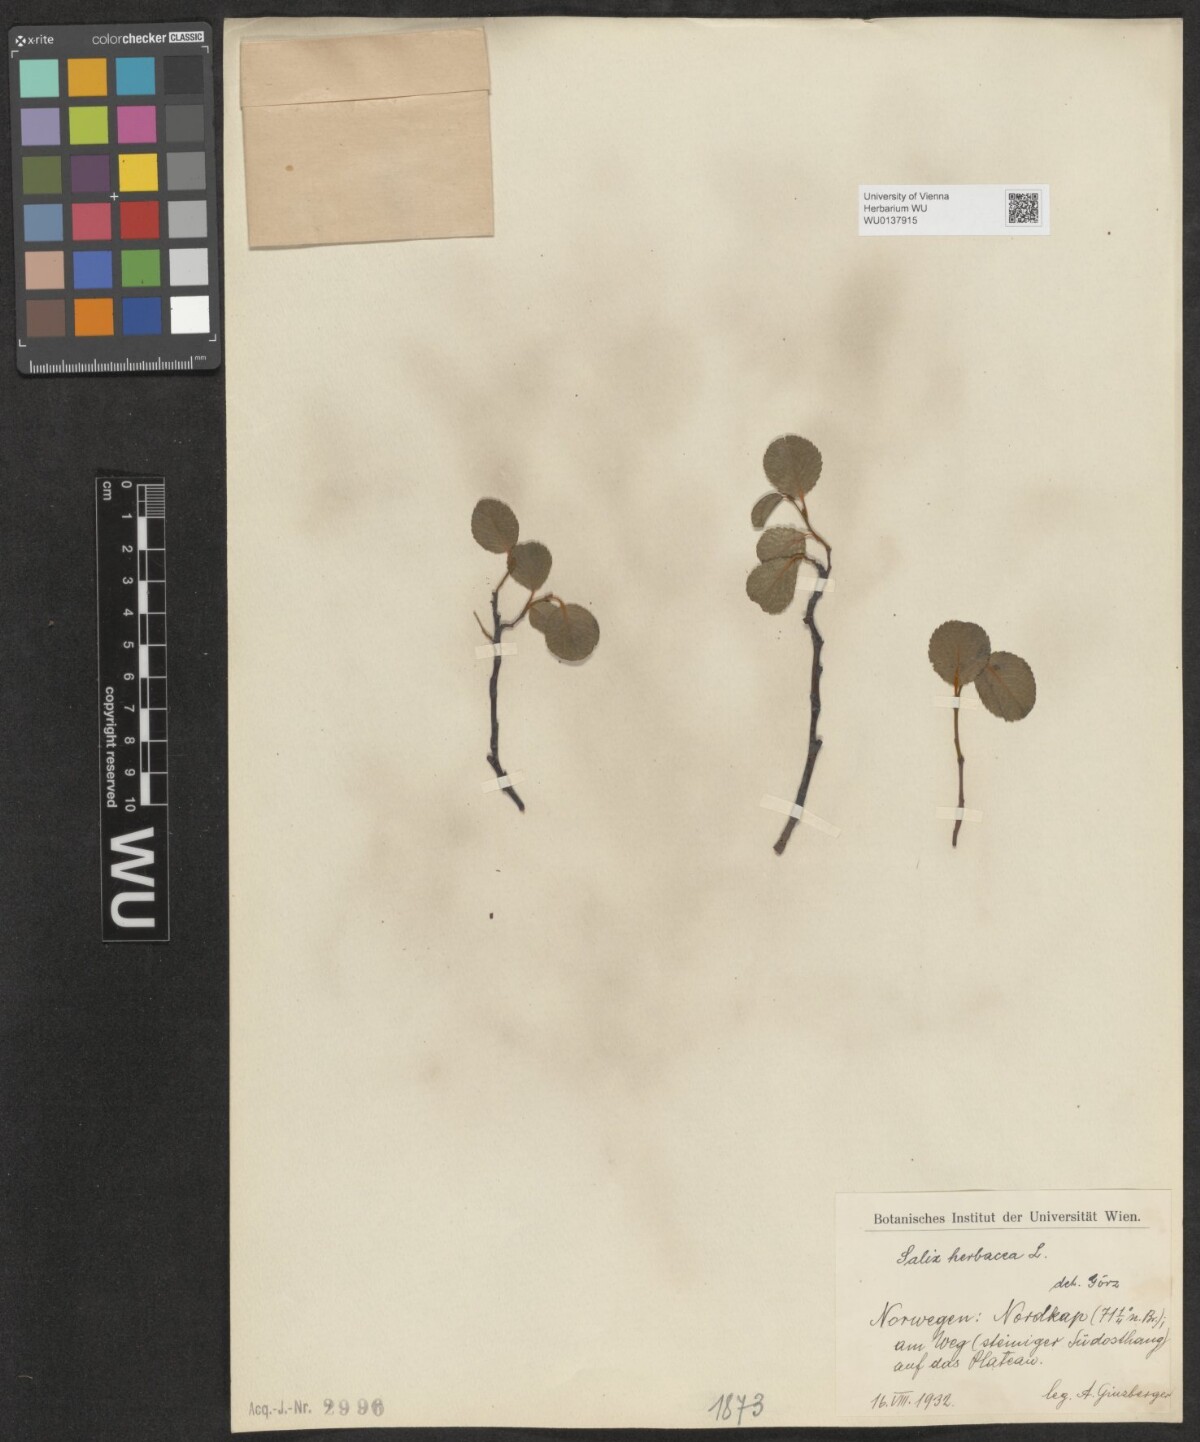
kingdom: Plantae
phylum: Tracheophyta
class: Magnoliopsida
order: Malpighiales
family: Salicaceae
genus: Salix
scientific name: Salix herbacea
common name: Dwarf willow
